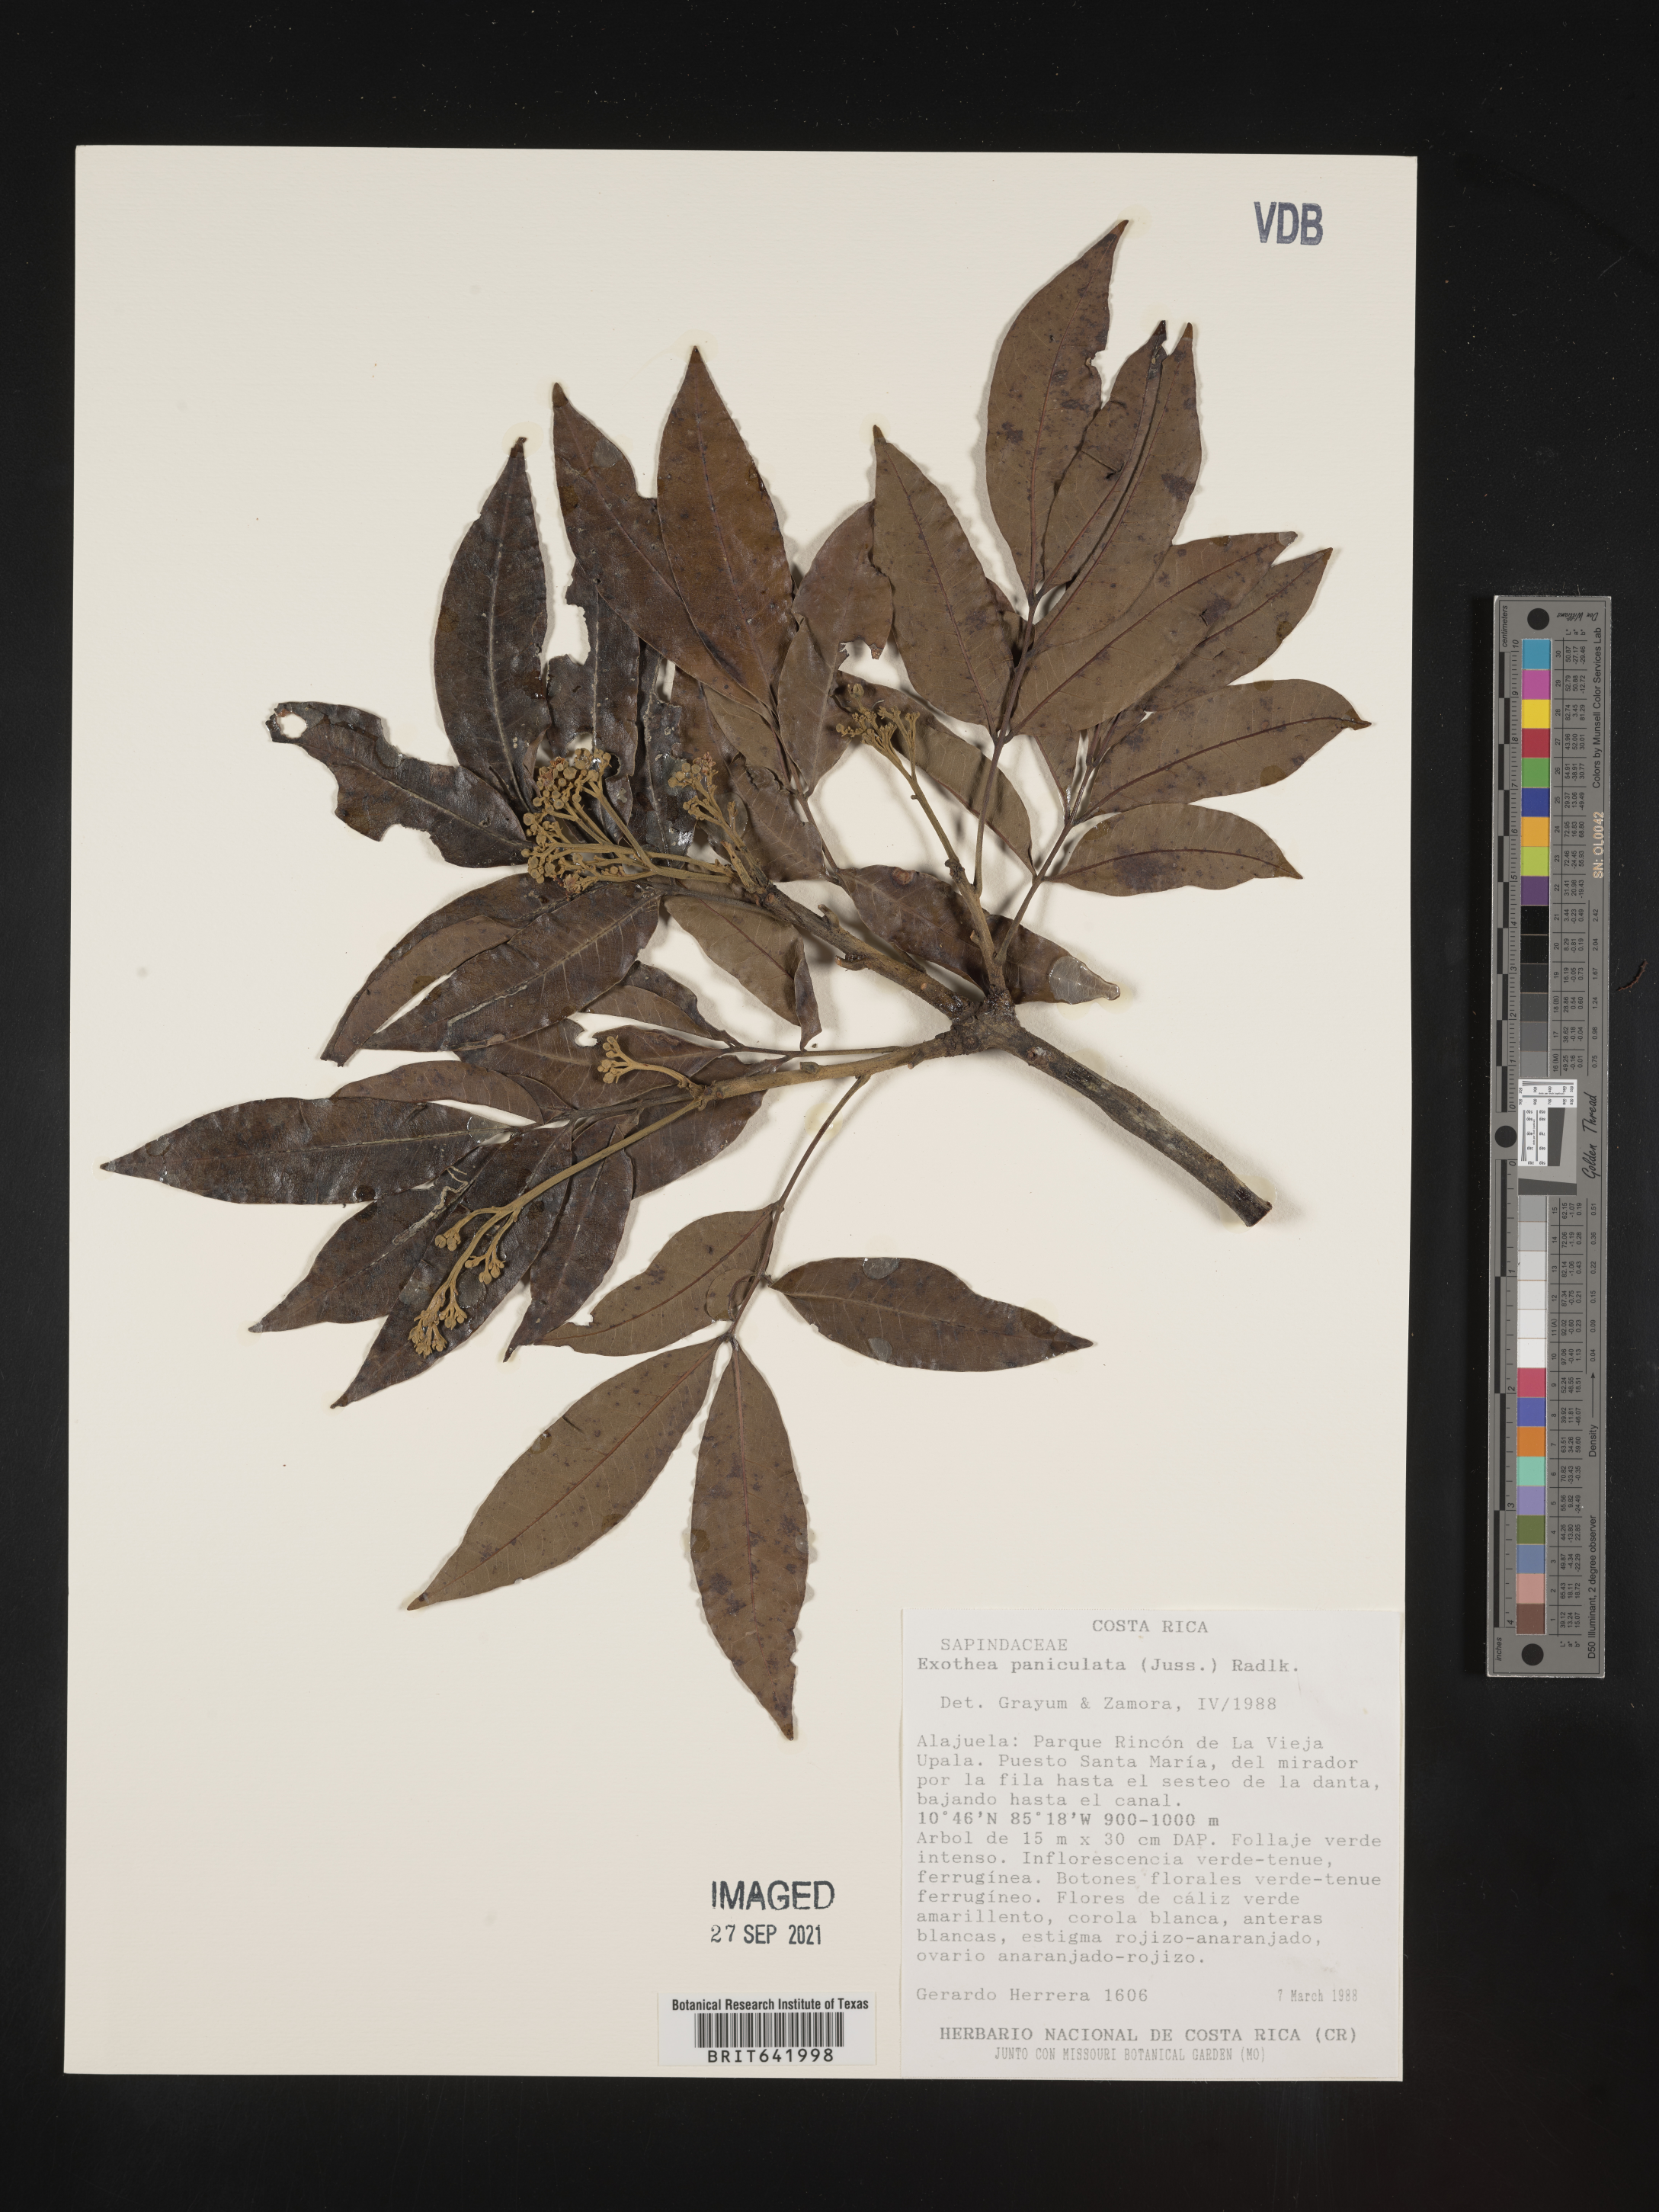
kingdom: Plantae
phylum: Tracheophyta
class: Magnoliopsida
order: Sapindales
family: Sapindaceae
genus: Exothea
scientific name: Exothea
